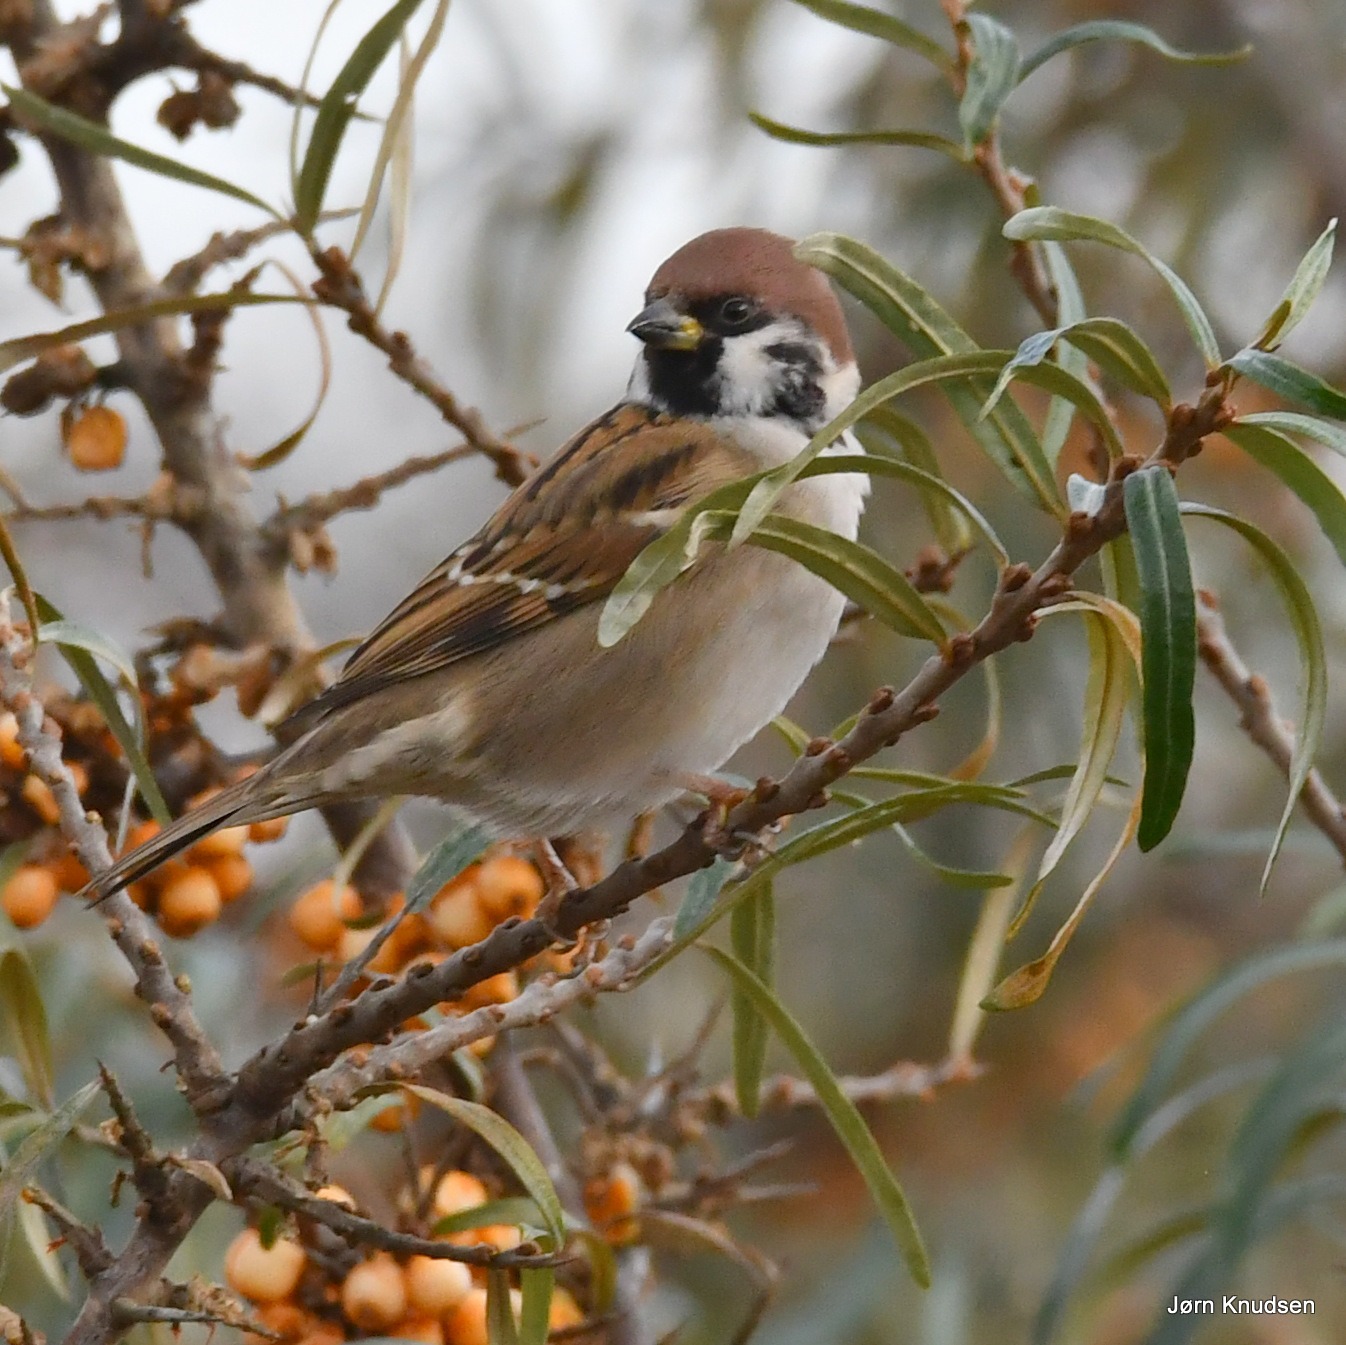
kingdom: Animalia
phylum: Chordata
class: Aves
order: Passeriformes
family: Passeridae
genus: Passer
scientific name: Passer montanus
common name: Skovspurv
